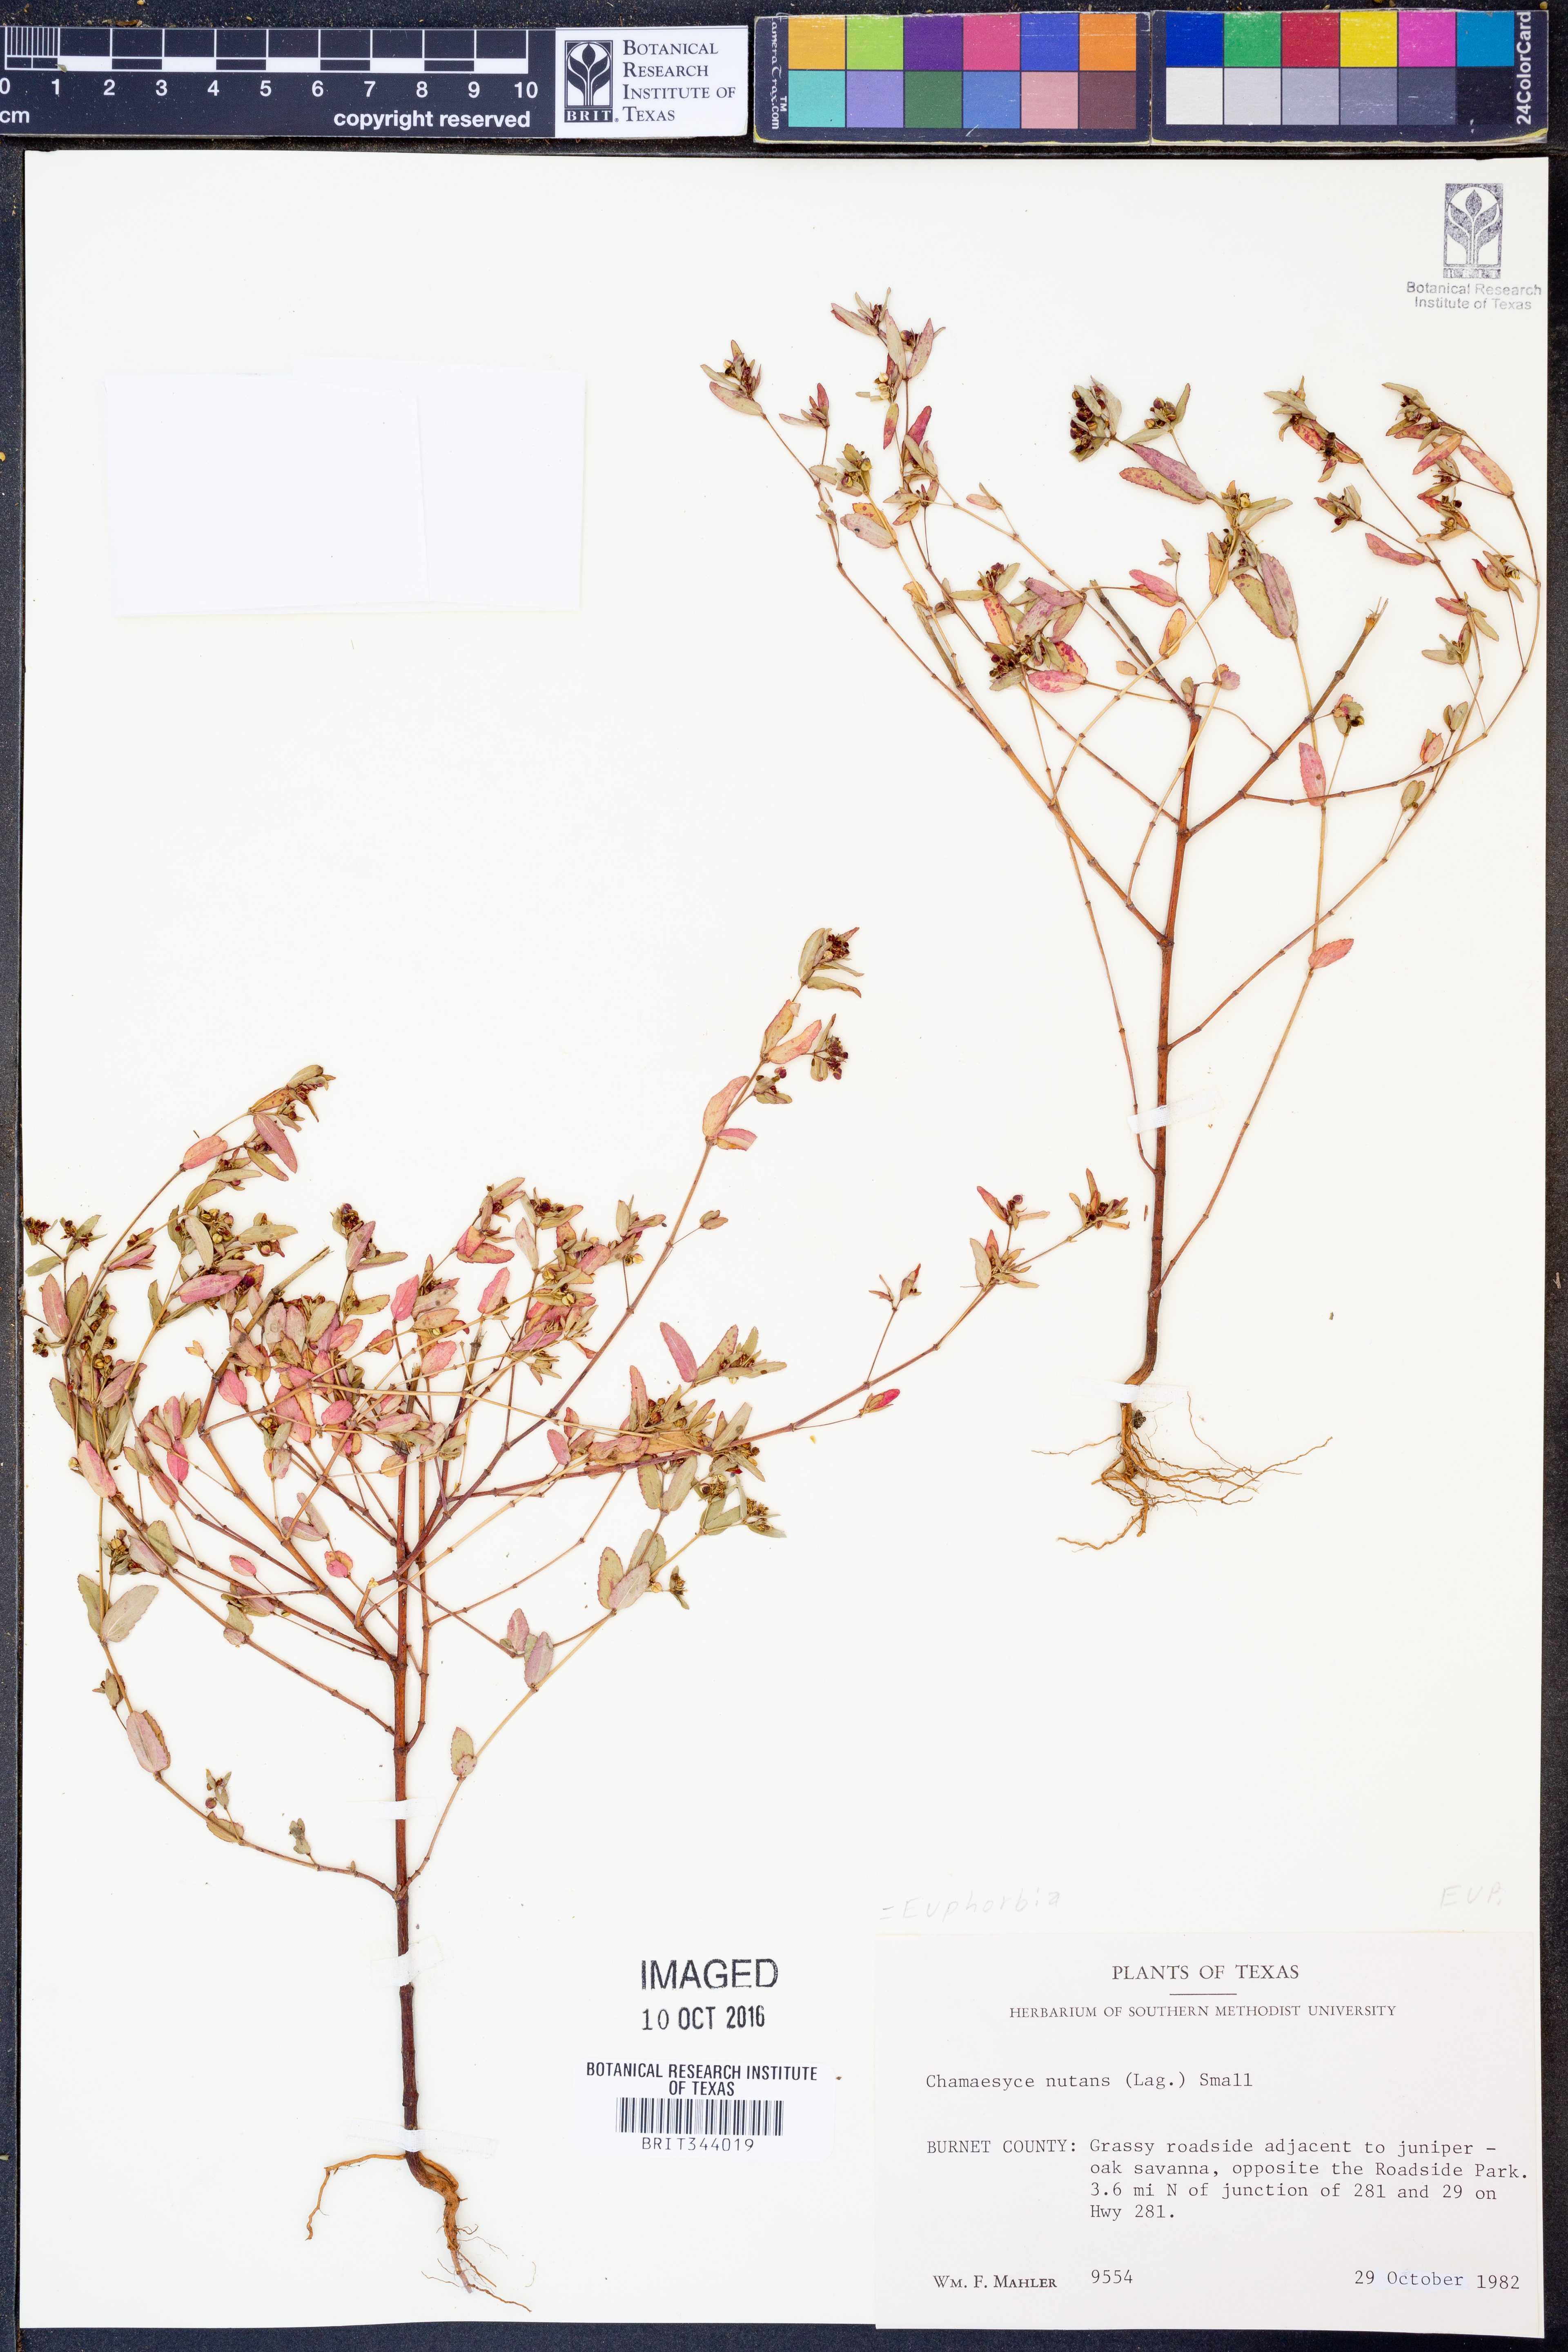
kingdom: Plantae
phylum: Tracheophyta
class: Magnoliopsida
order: Malpighiales
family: Euphorbiaceae
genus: Euphorbia
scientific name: Euphorbia nutans
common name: Eyebane
